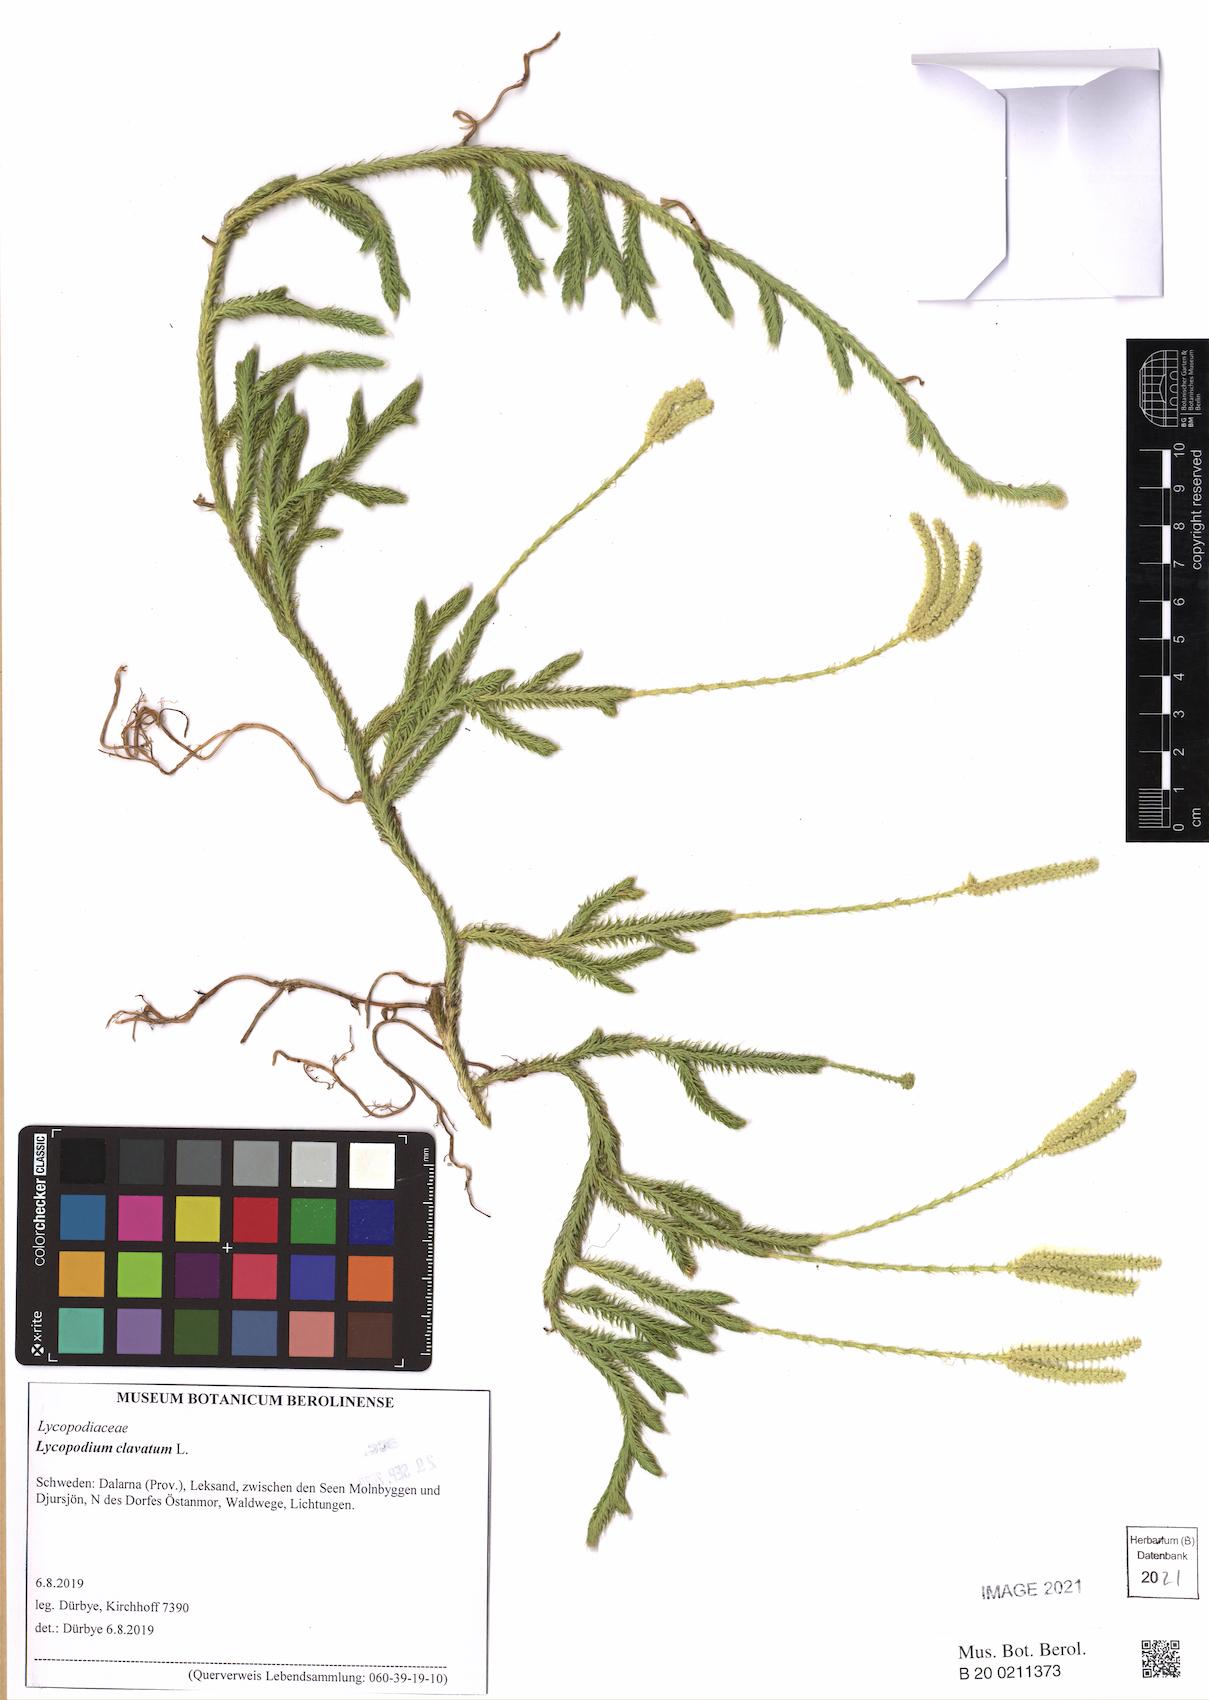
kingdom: Plantae
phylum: Tracheophyta
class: Lycopodiopsida
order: Lycopodiales
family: Lycopodiaceae
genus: Lycopodium
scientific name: Lycopodium clavatum
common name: Stag's-horn clubmoss
